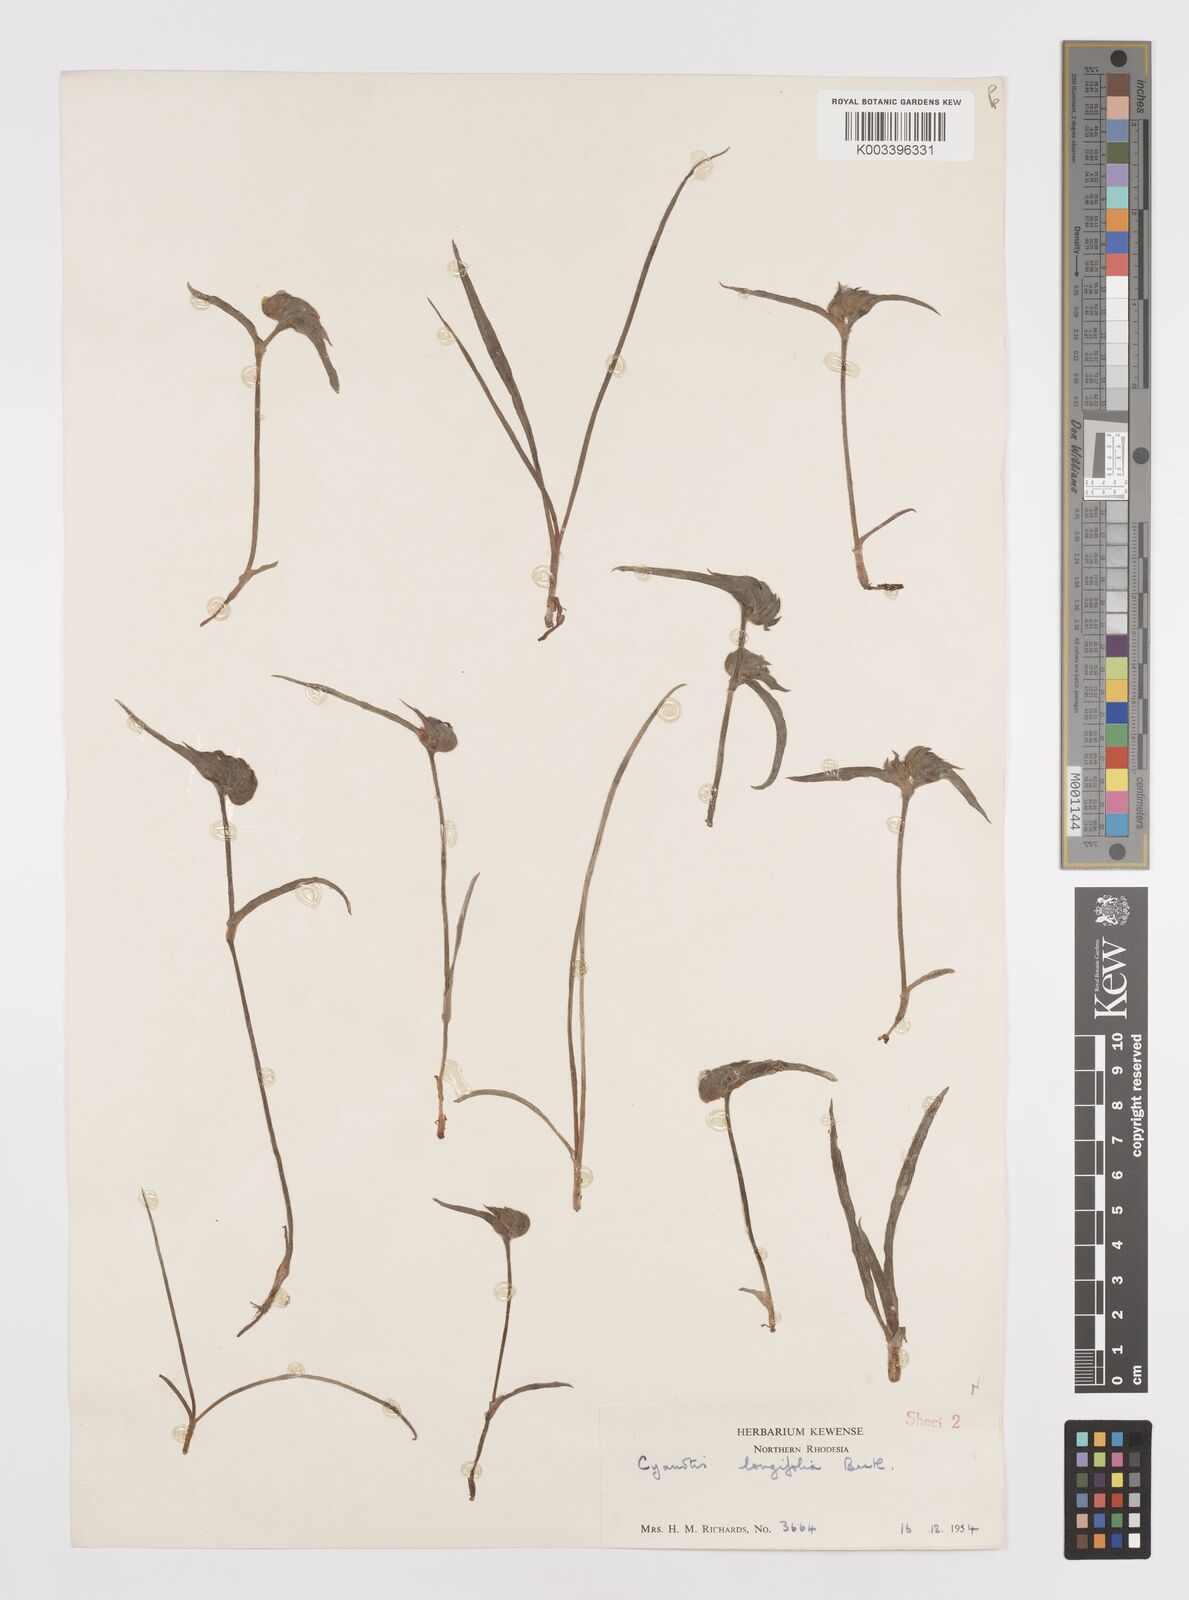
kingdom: Plantae
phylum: Tracheophyta
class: Liliopsida
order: Commelinales
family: Commelinaceae
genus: Cyanotis
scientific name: Cyanotis longifolia
